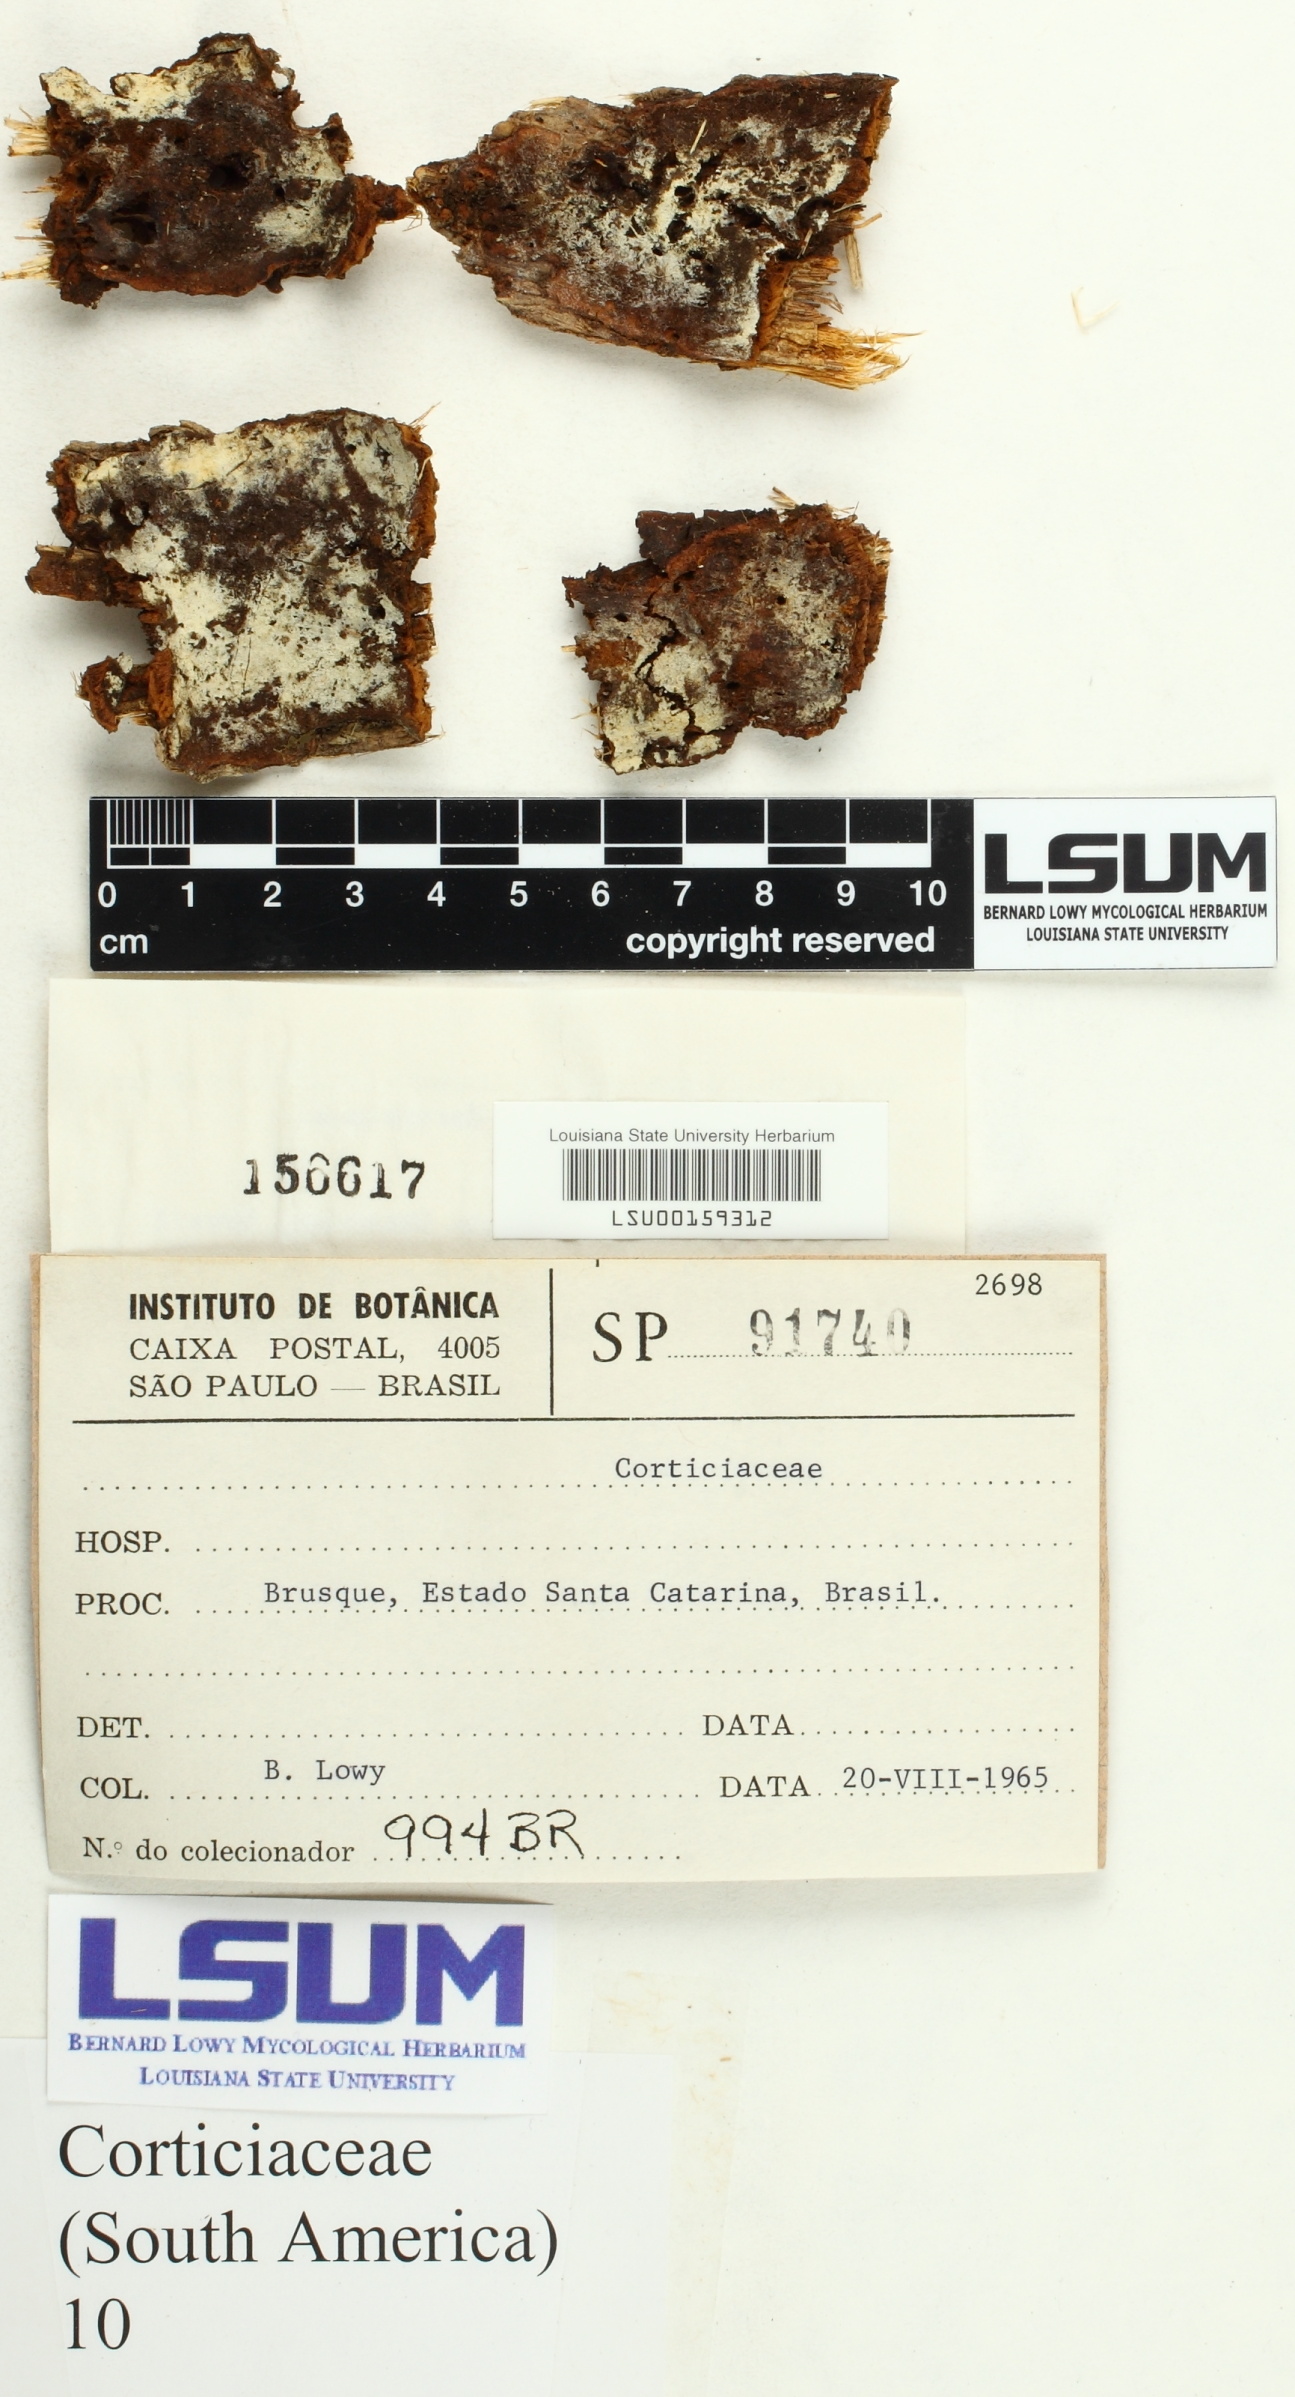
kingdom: Fungi
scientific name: Fungi
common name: Fungi
